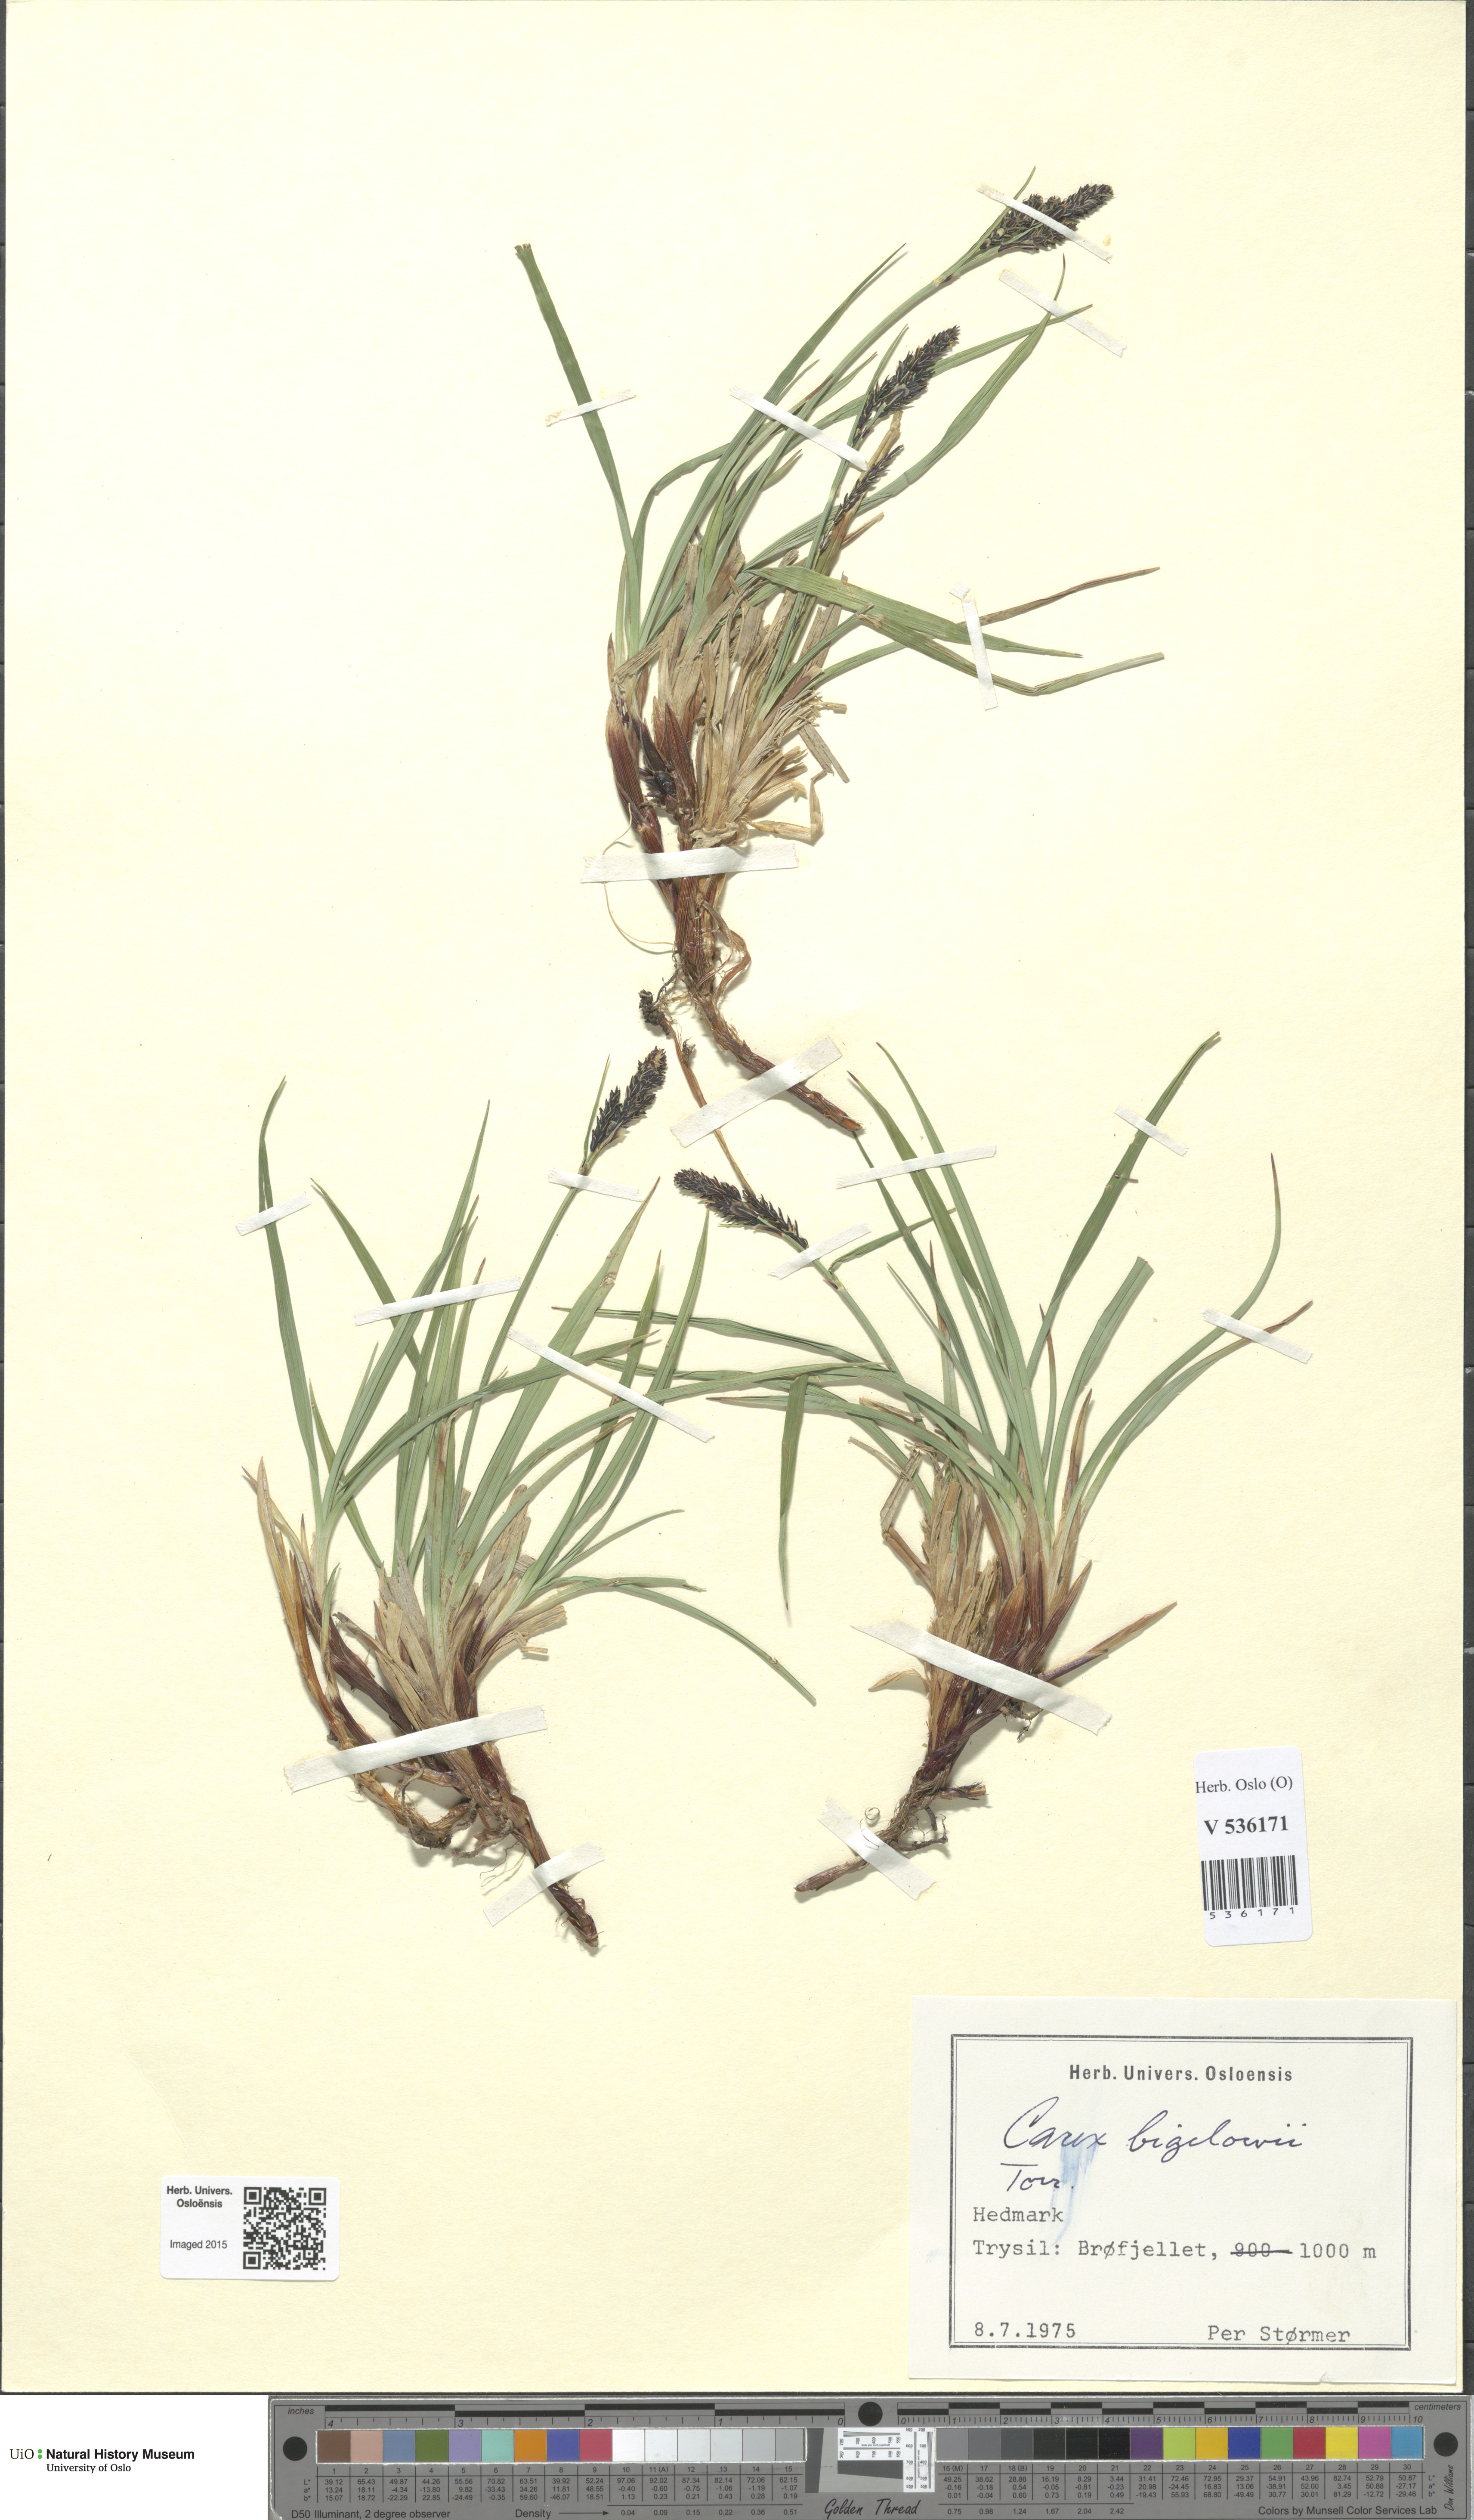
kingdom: Plantae
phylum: Tracheophyta
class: Liliopsida
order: Poales
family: Cyperaceae
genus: Carex
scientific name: Carex bigelowii
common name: Stiff sedge
